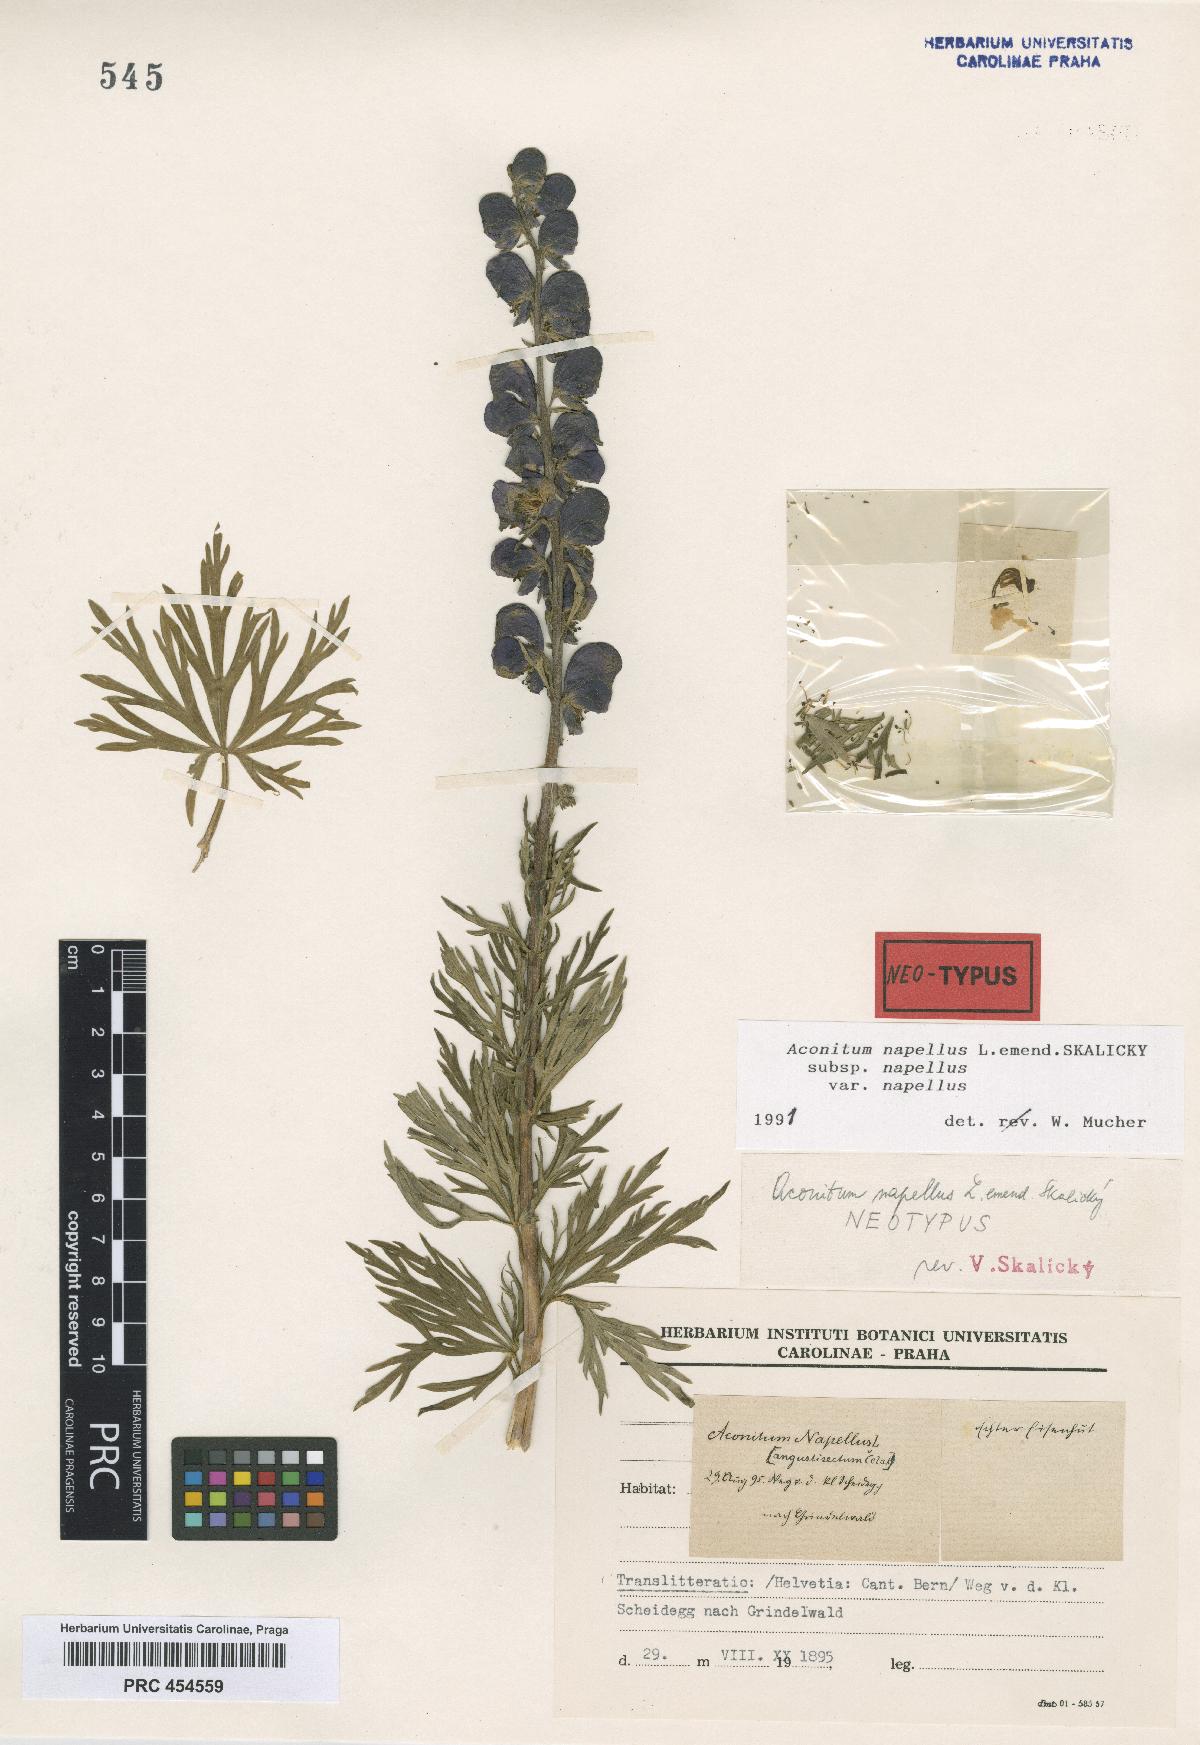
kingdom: Plantae
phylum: Tracheophyta
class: Magnoliopsida
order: Ranunculales
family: Ranunculaceae
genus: Aconitum
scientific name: Aconitum napellus
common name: Garden monkshood
